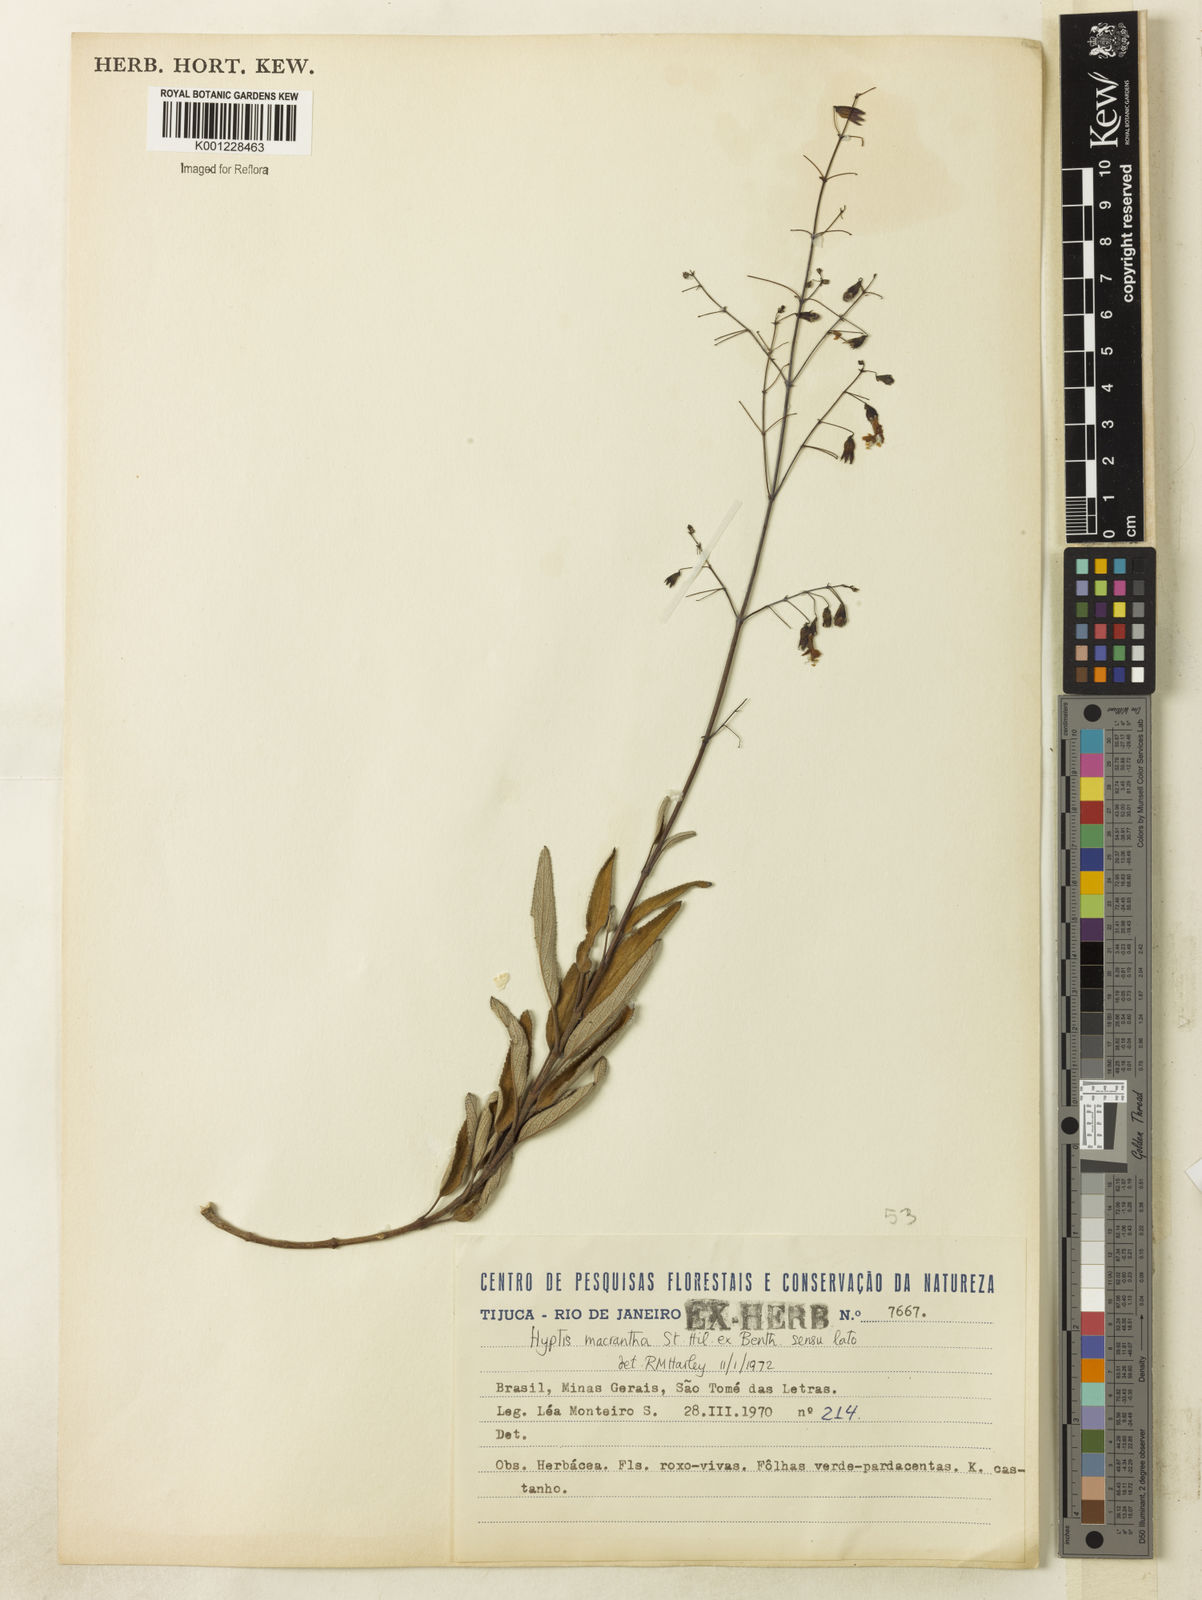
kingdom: Plantae
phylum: Tracheophyta
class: Magnoliopsida
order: Lamiales
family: Lamiaceae
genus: Hypenia
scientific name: Hypenia reticulata
